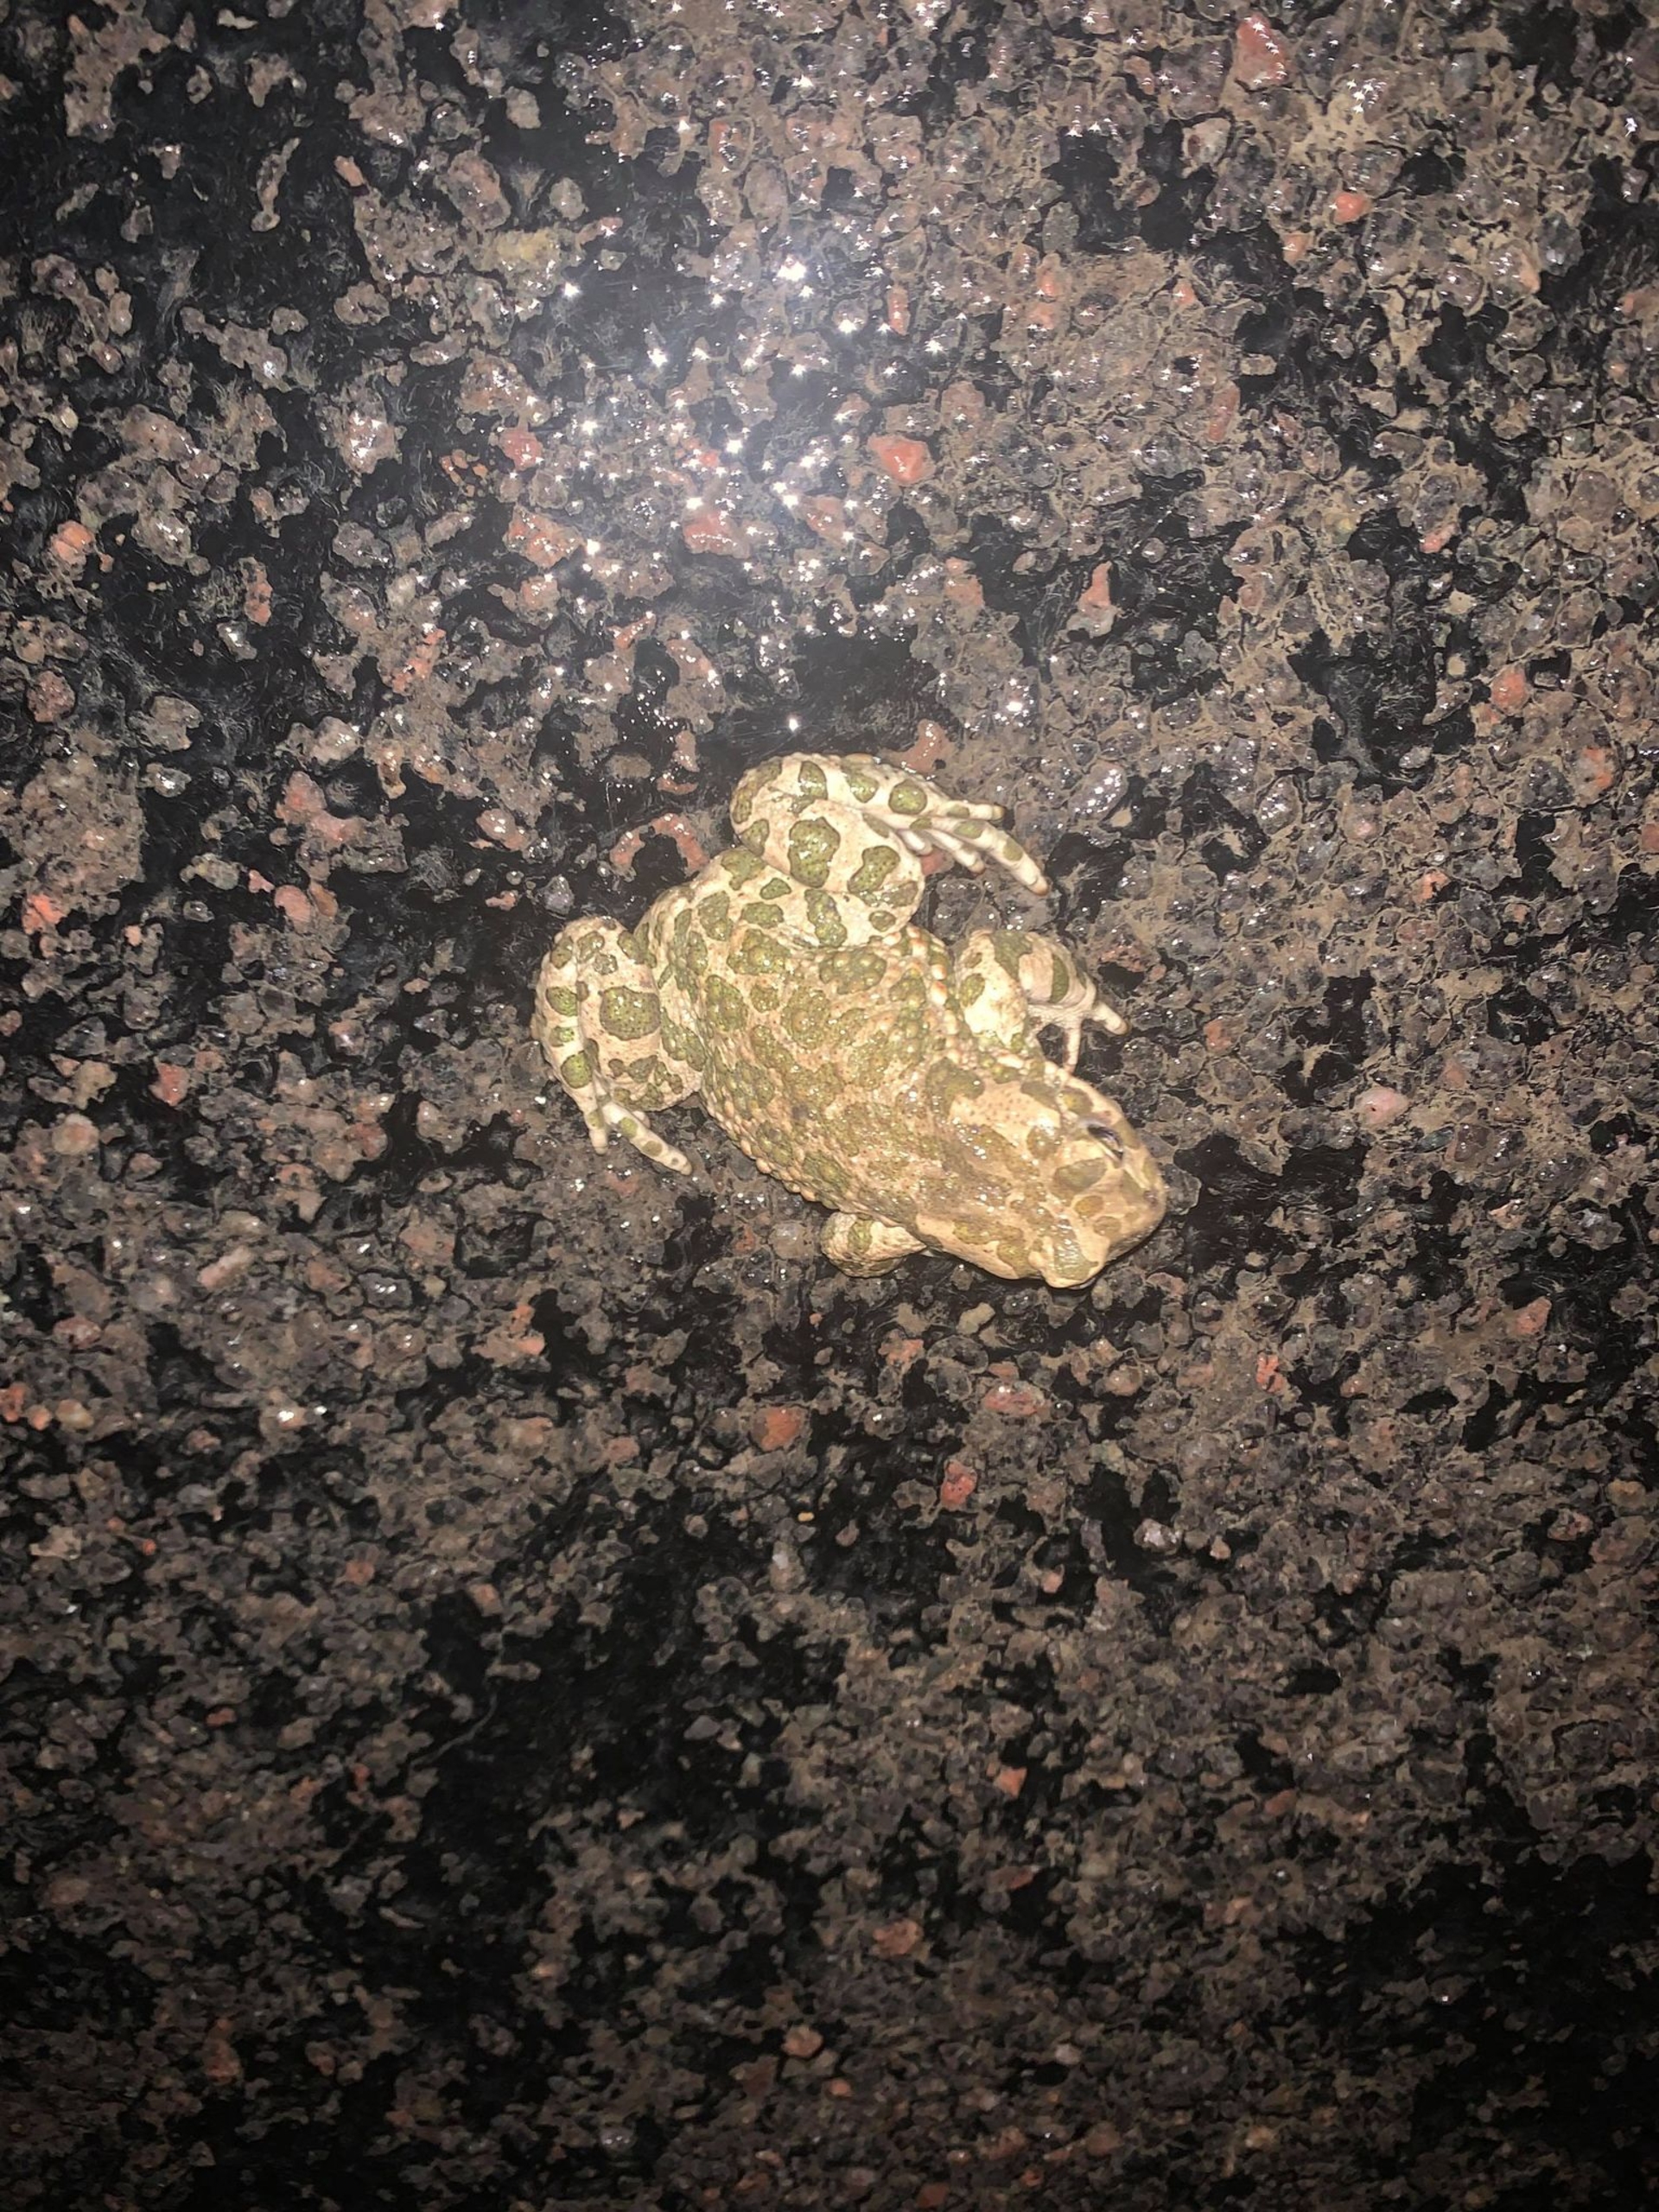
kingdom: Animalia
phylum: Chordata
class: Amphibia
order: Anura
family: Bufonidae
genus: Bufotes
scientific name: Bufotes viridis
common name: Grønbroget tudse
